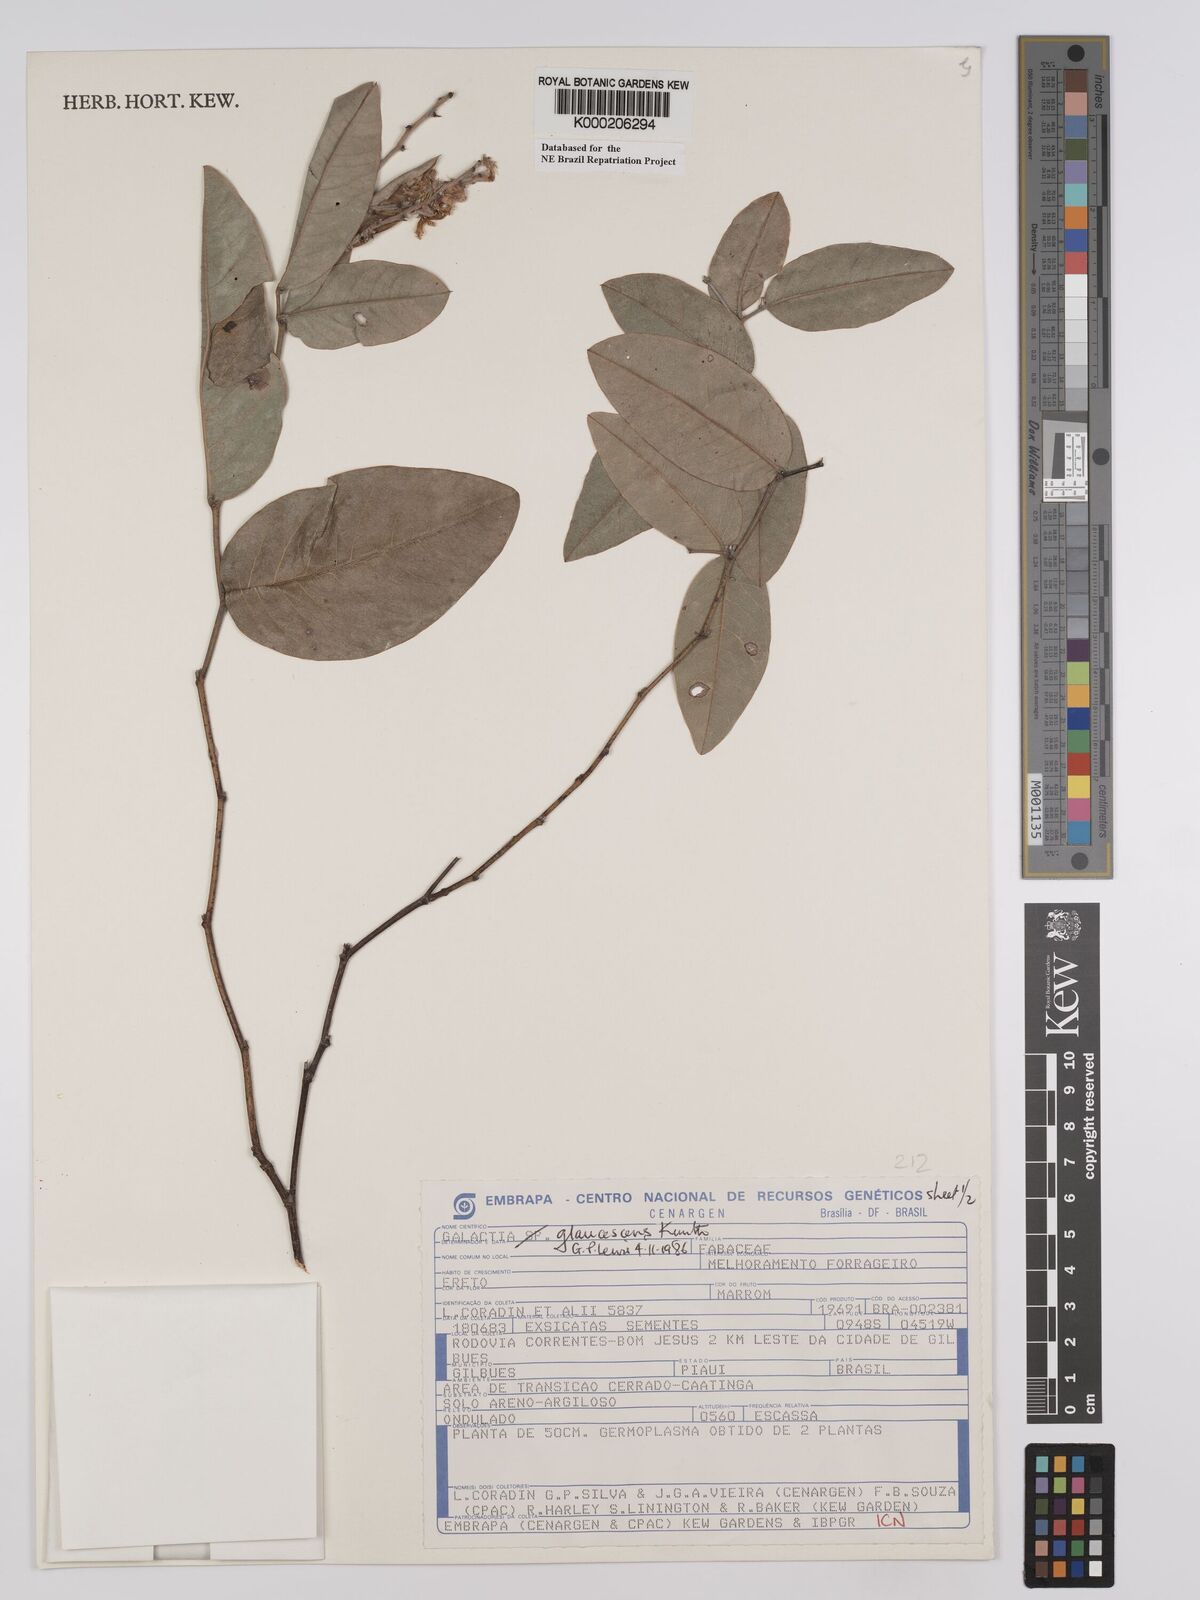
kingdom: Plantae
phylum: Tracheophyta
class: Magnoliopsida
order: Fabales
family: Fabaceae
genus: Galactia
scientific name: Galactia glaucescens
